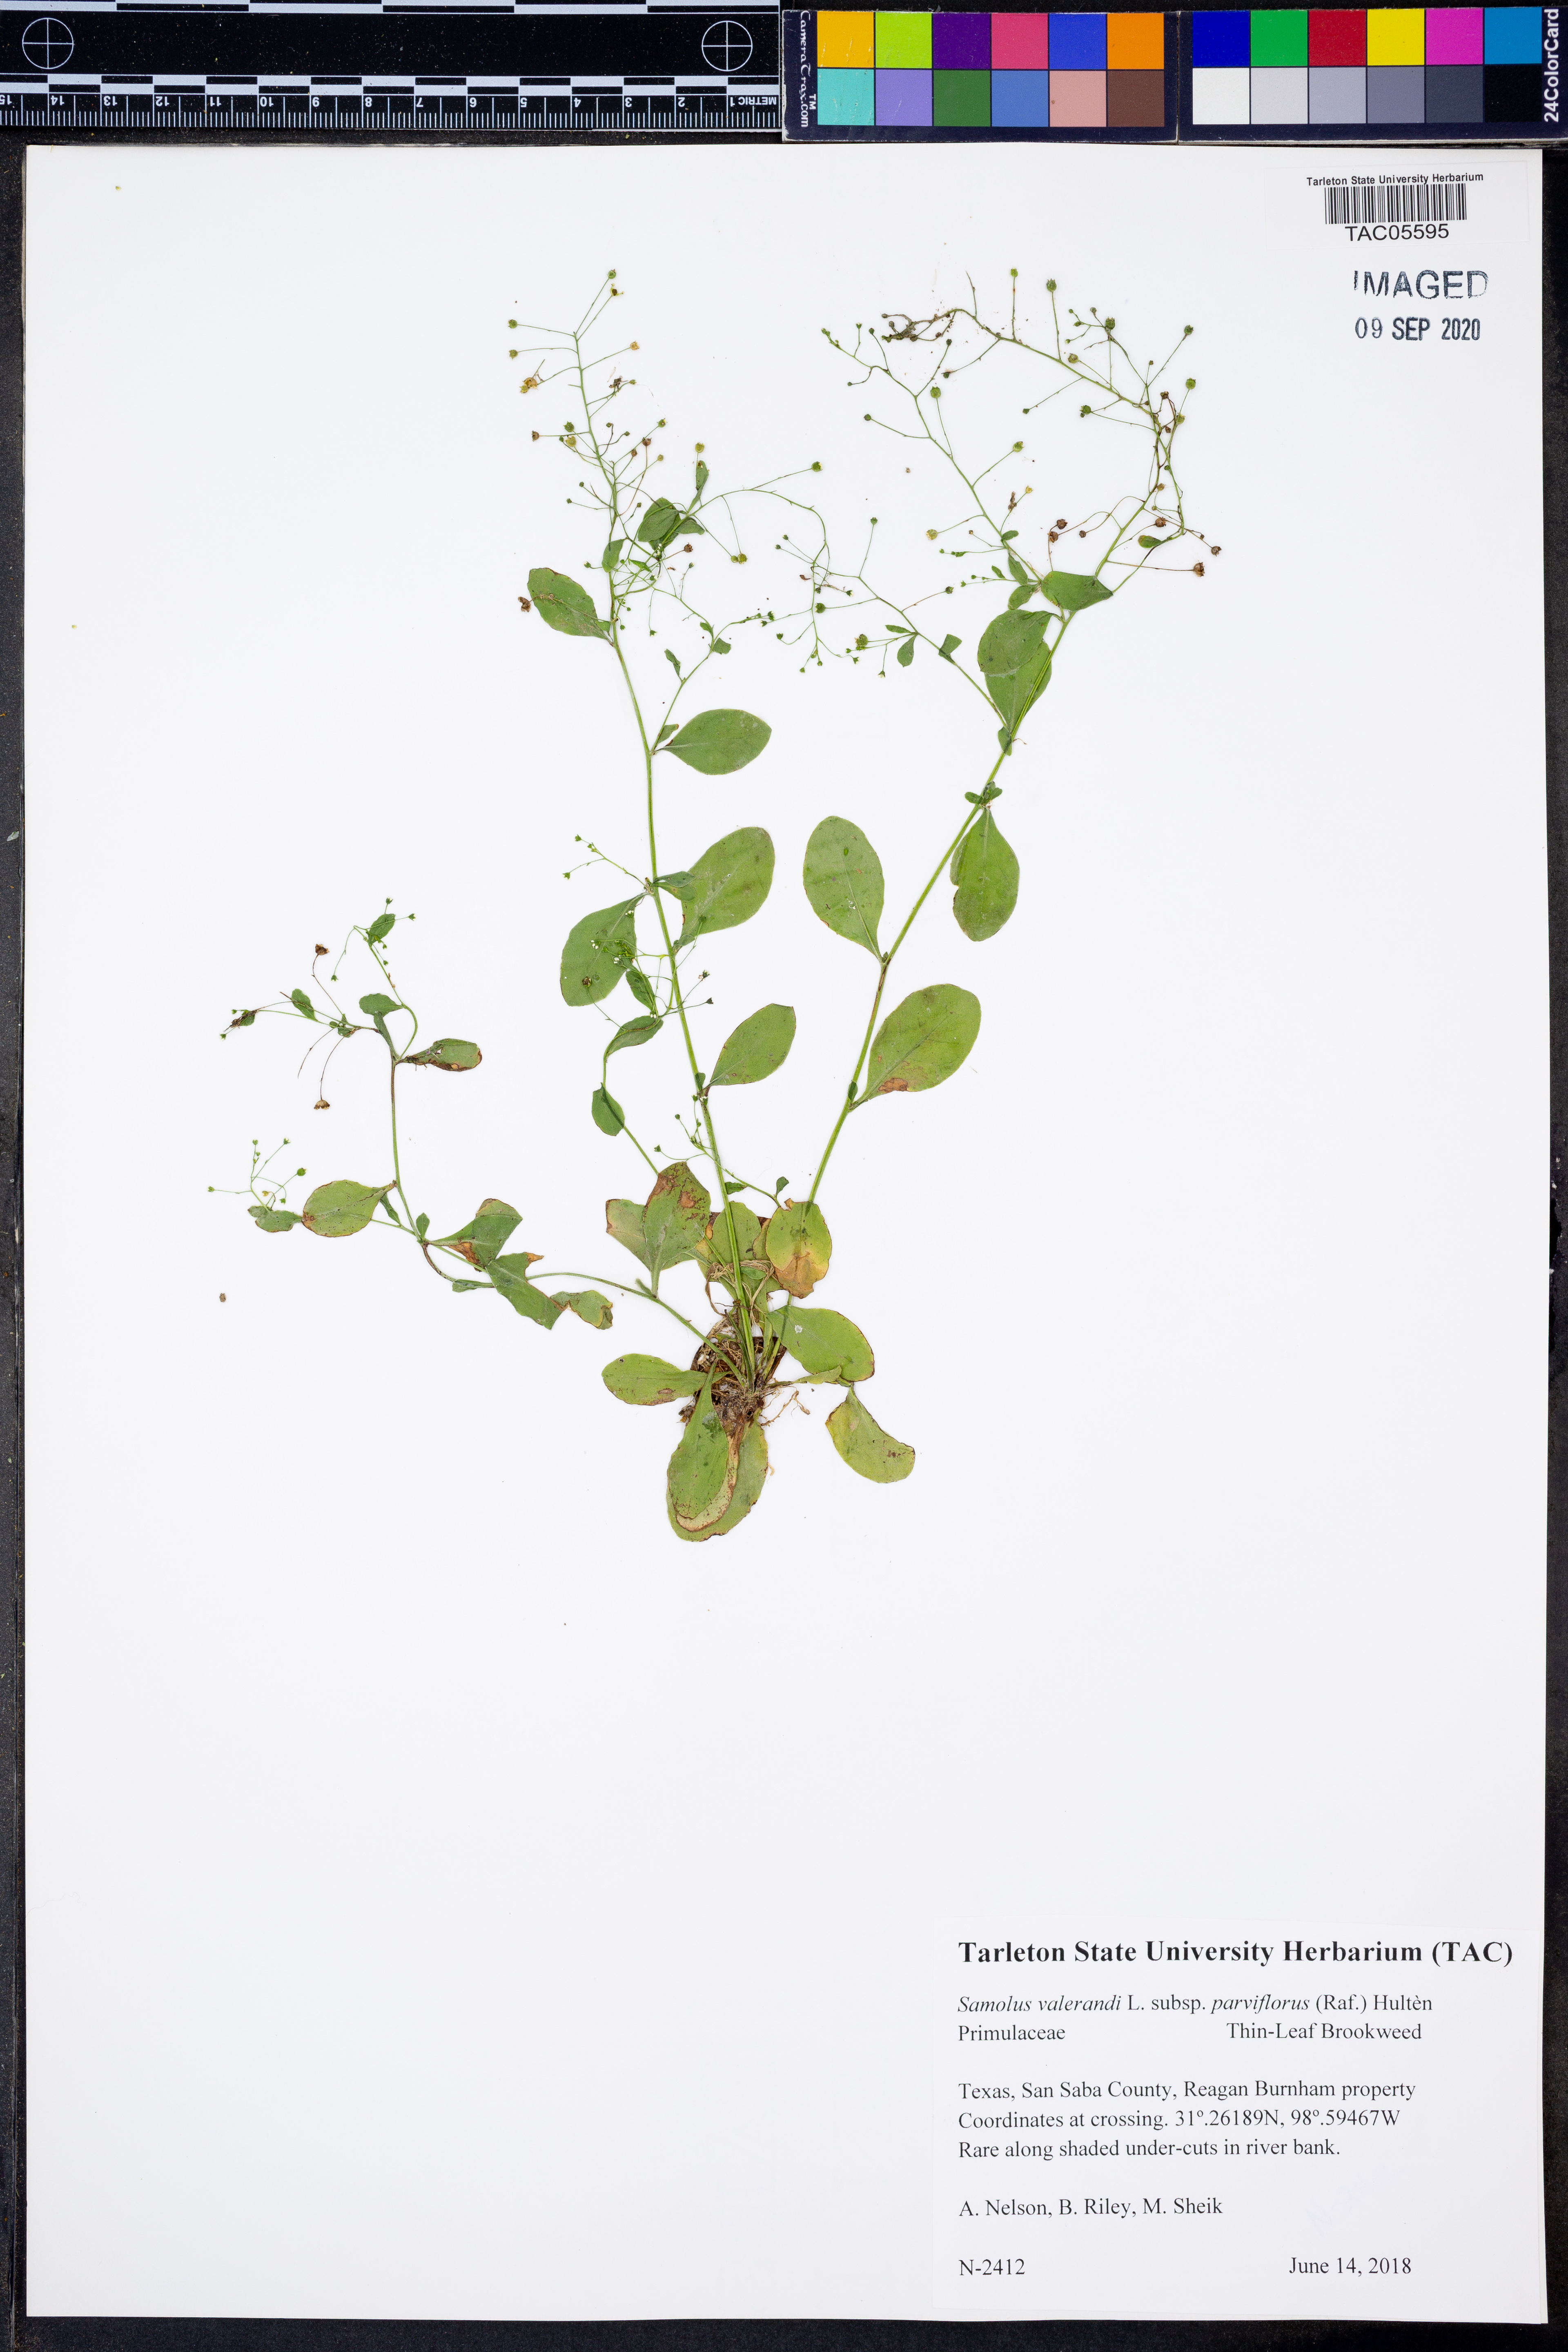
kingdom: Plantae
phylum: Tracheophyta
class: Magnoliopsida
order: Ericales
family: Primulaceae
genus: Samolus
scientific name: Samolus parviflorus
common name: False water pimpernel
